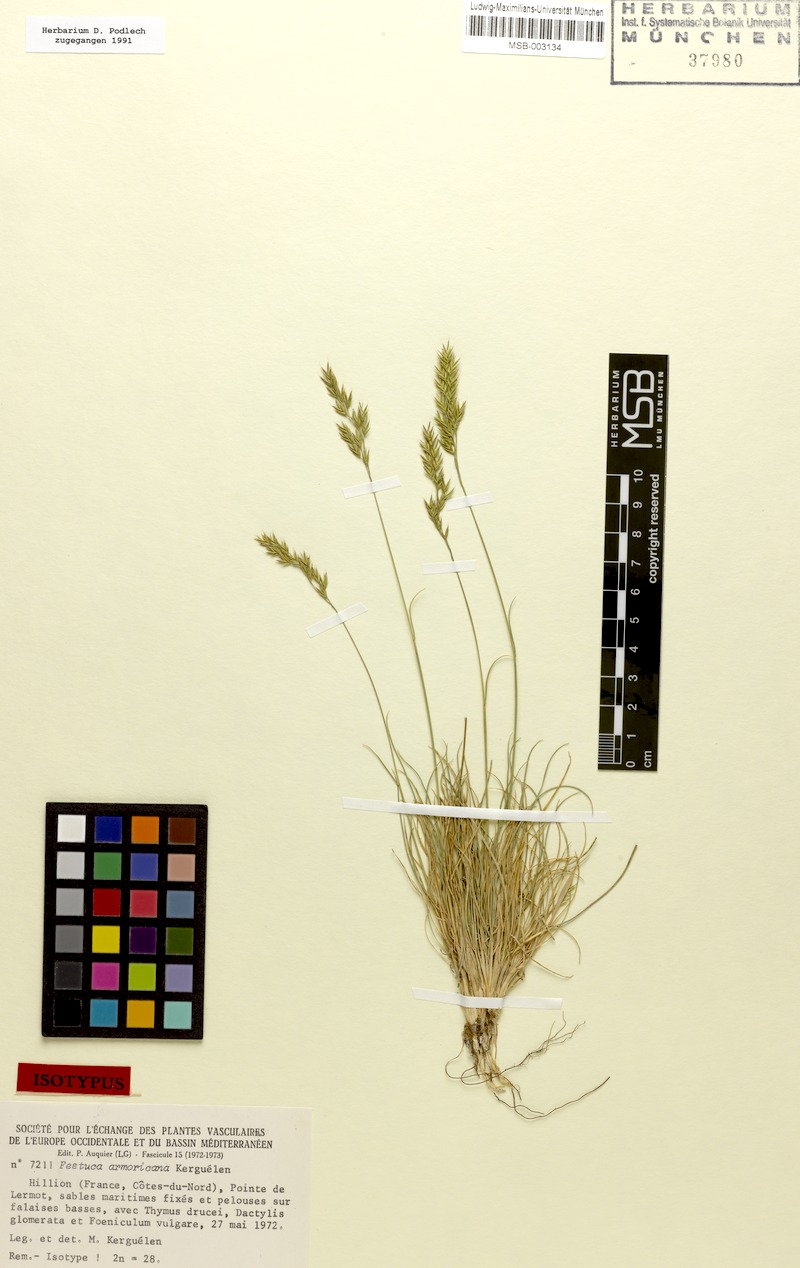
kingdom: Plantae
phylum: Tracheophyta
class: Liliopsida
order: Poales
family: Poaceae
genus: Festuca
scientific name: Festuca armoricana
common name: Breton fescue
